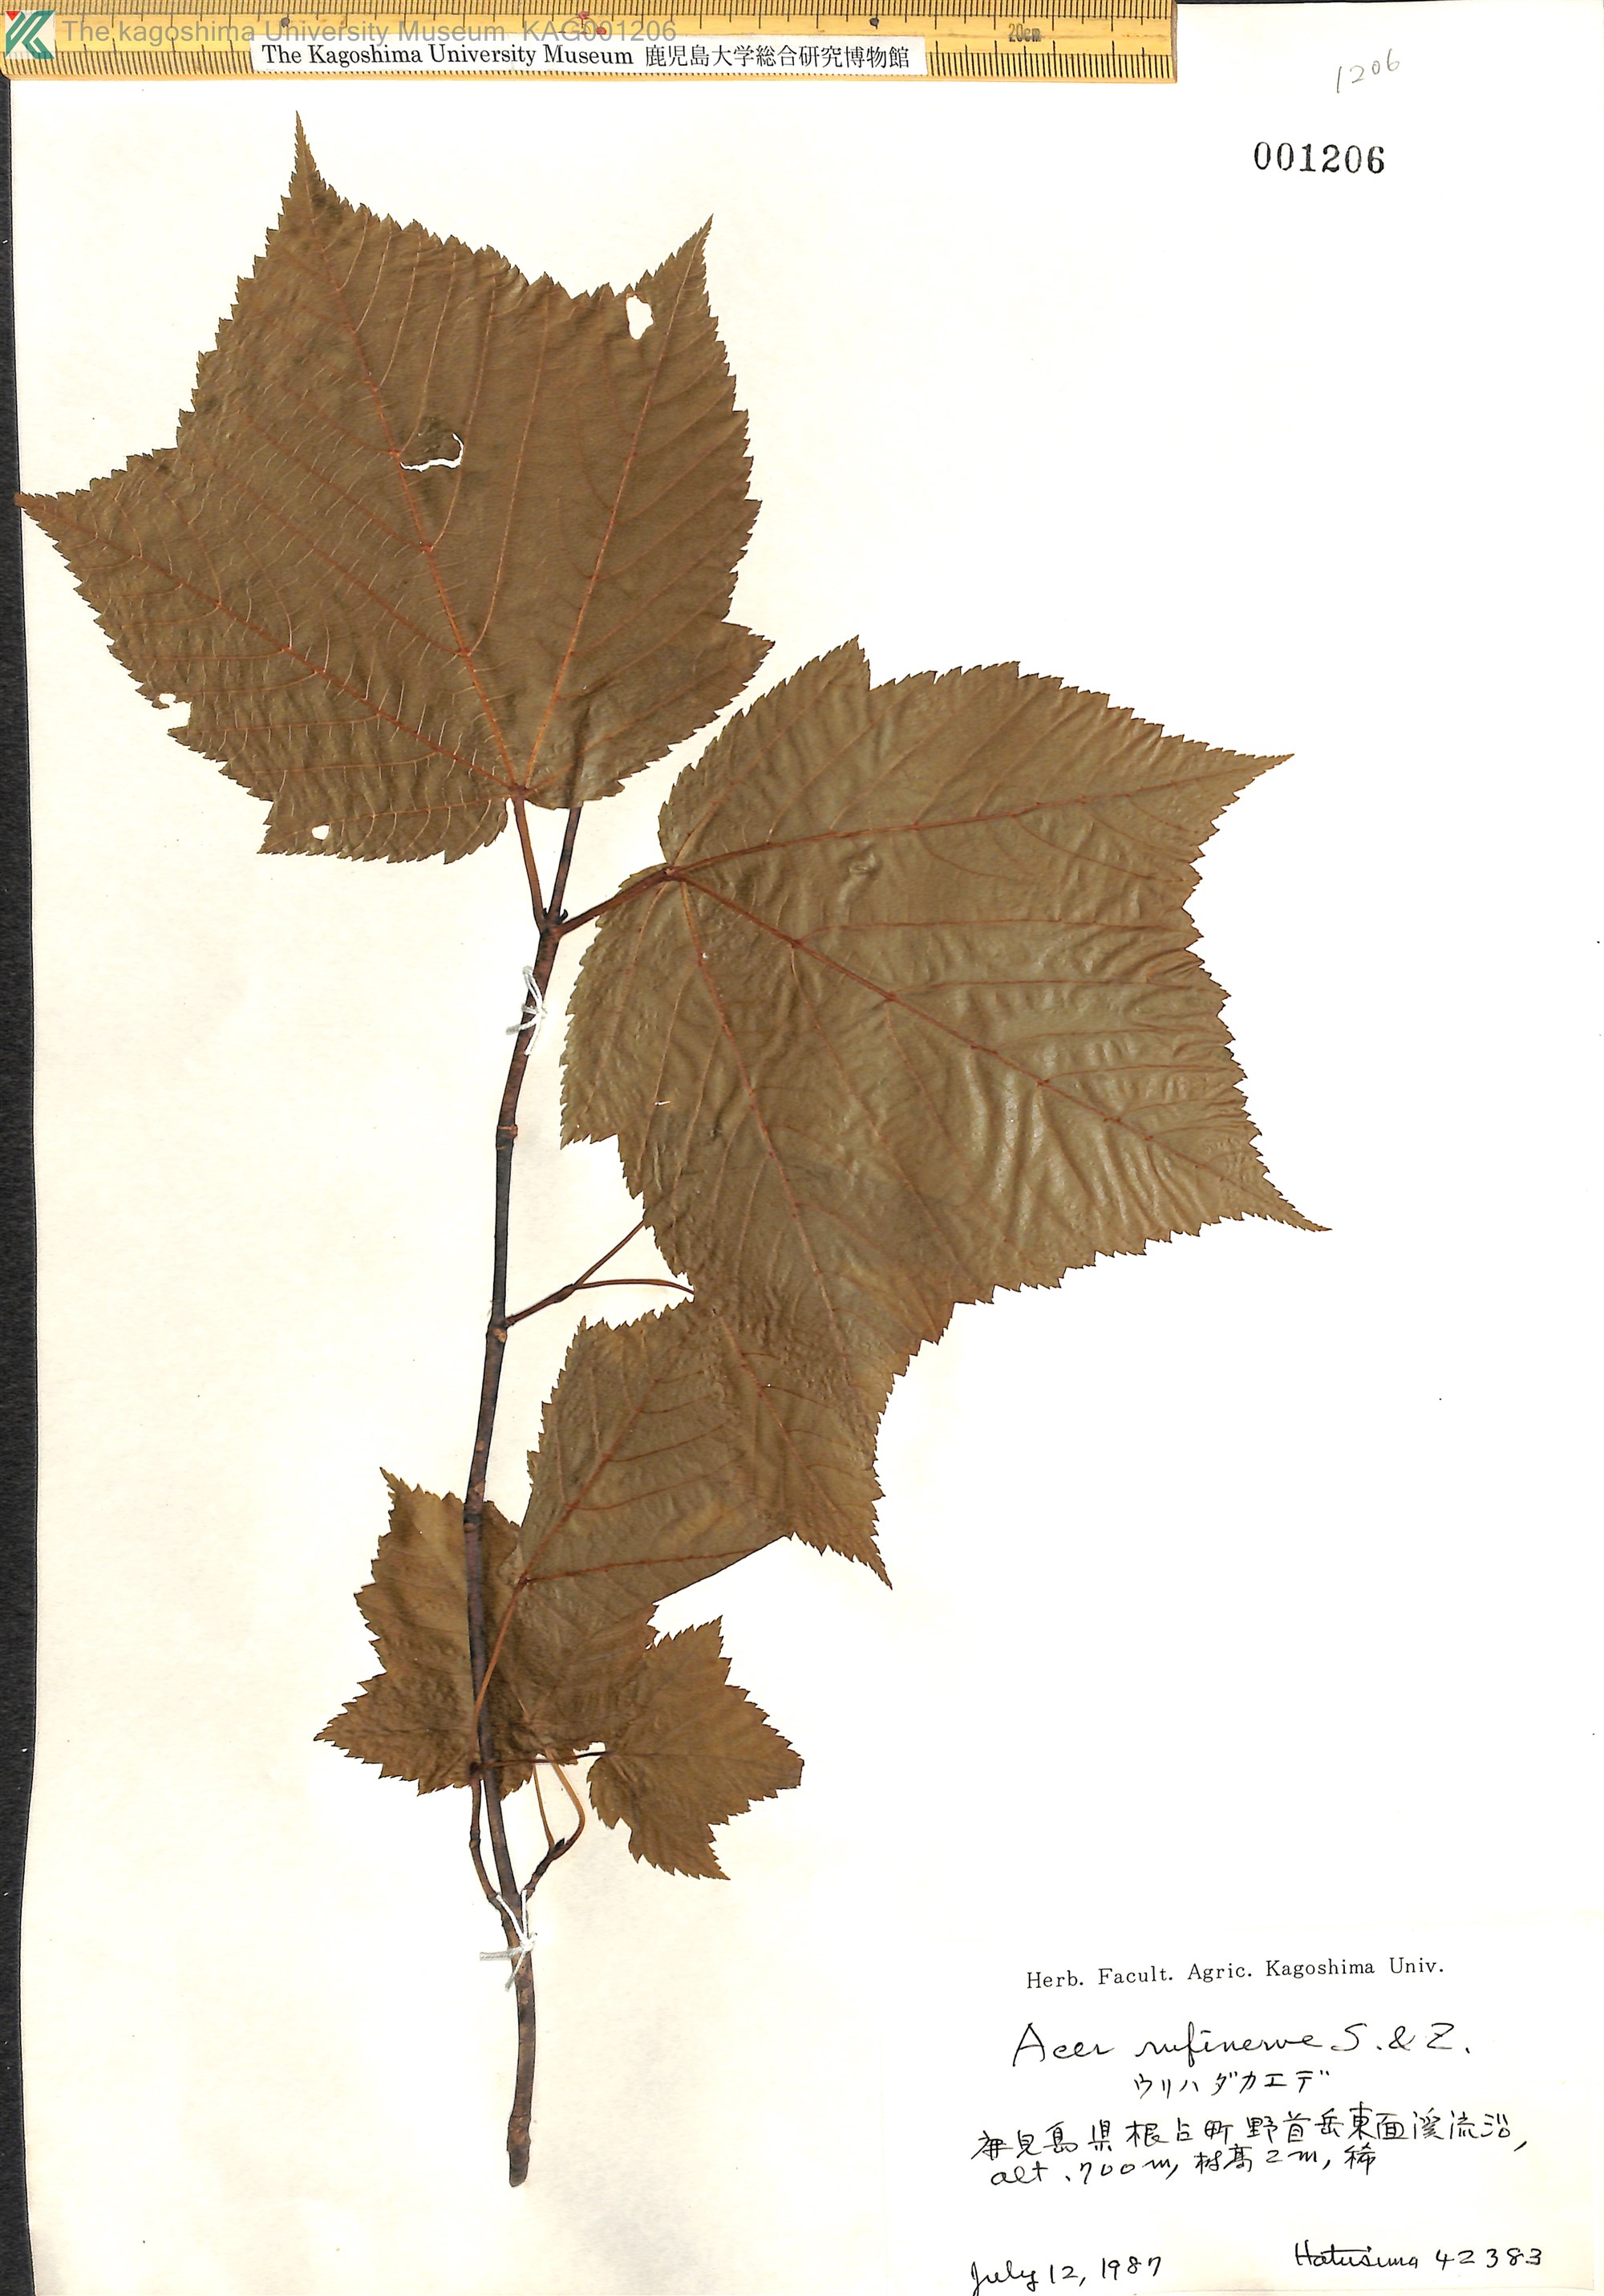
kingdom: Plantae
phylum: Tracheophyta
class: Magnoliopsida
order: Sapindales
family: Sapindaceae
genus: Acer
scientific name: Acer rufinerve
